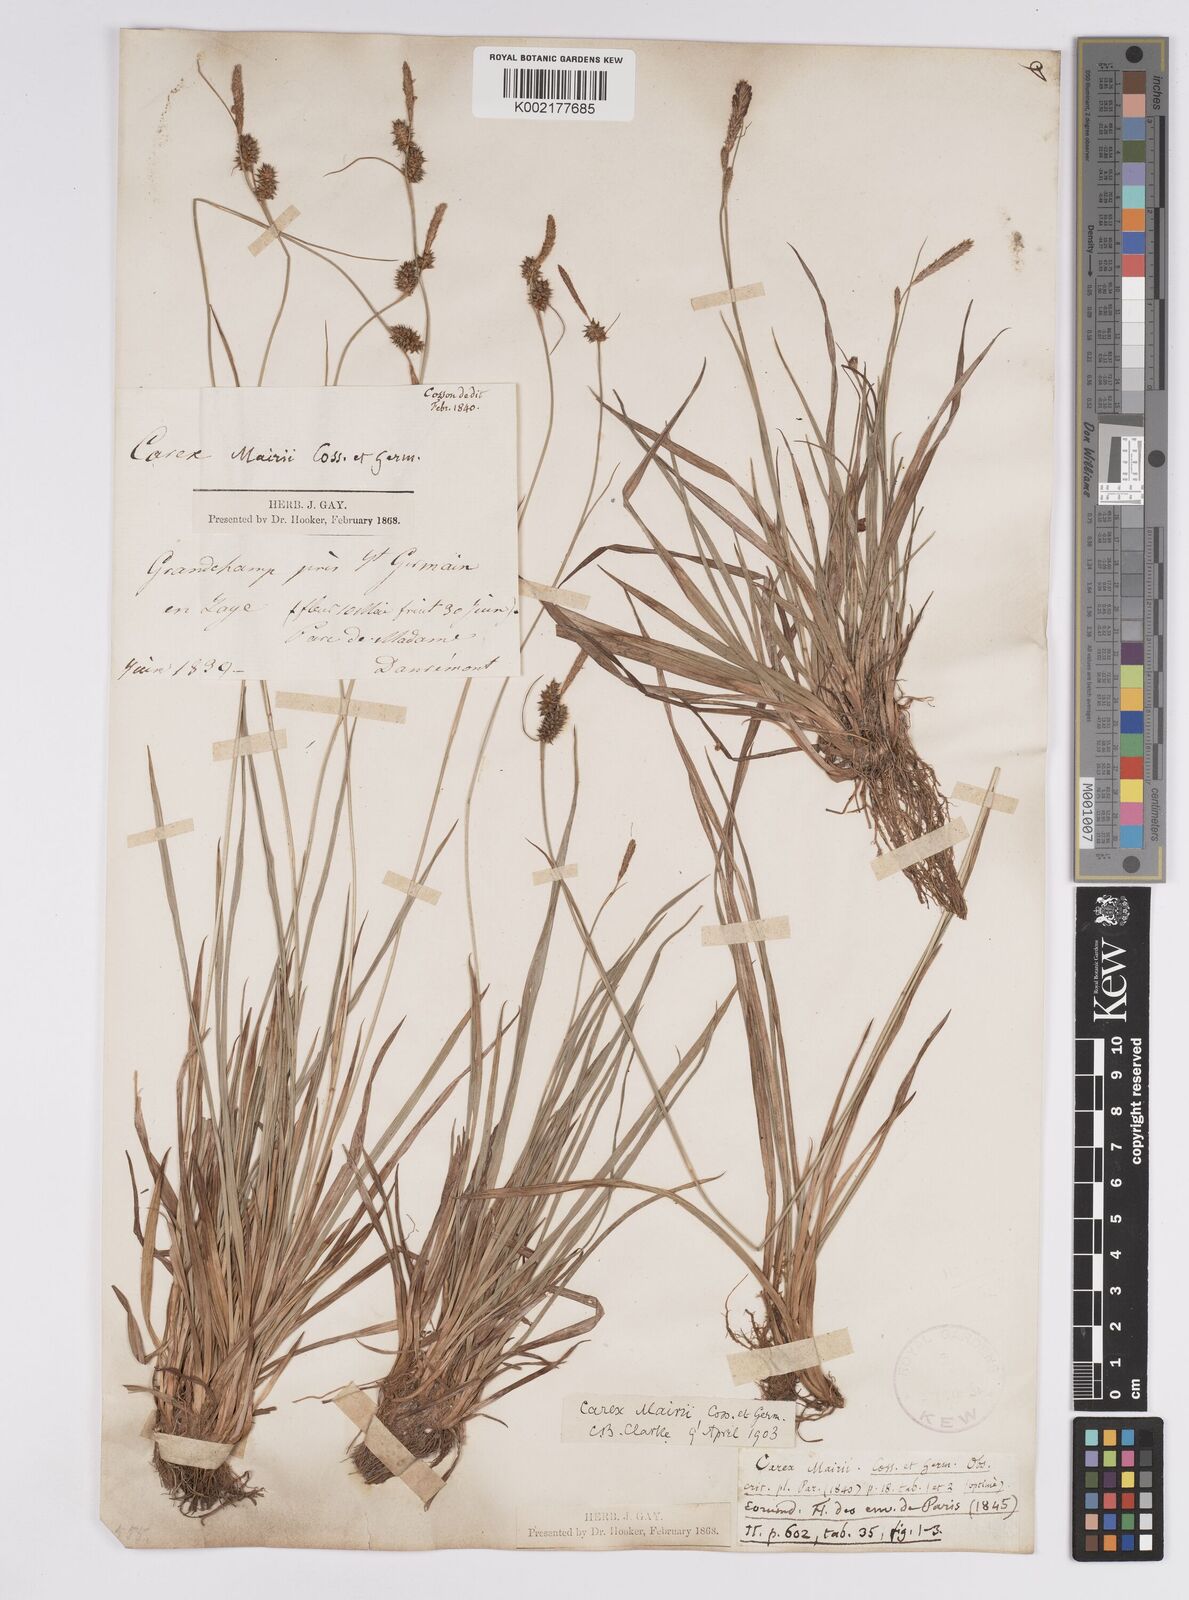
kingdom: Plantae
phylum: Tracheophyta
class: Liliopsida
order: Poales
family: Cyperaceae
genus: Carex
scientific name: Carex mairei
